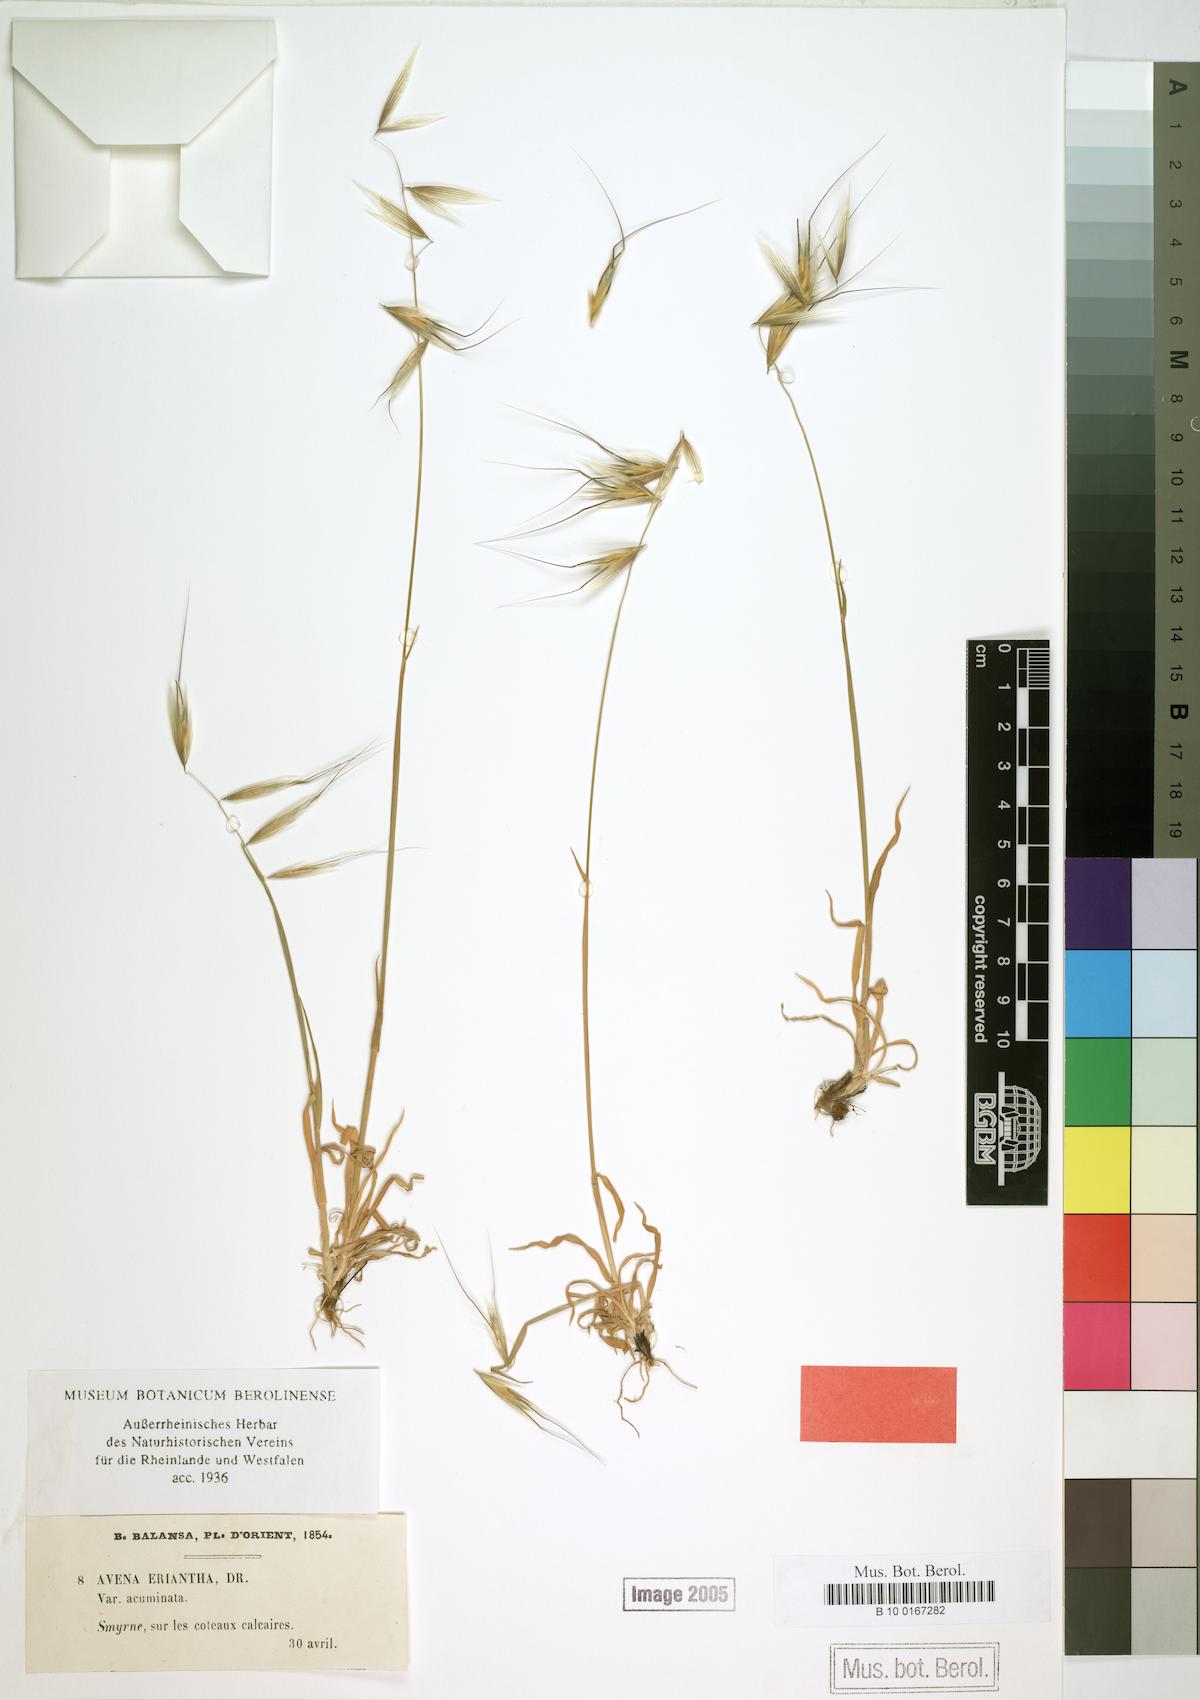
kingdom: Plantae
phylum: Tracheophyta
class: Liliopsida
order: Poales
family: Poaceae
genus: Avena
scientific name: Avena eriantha
